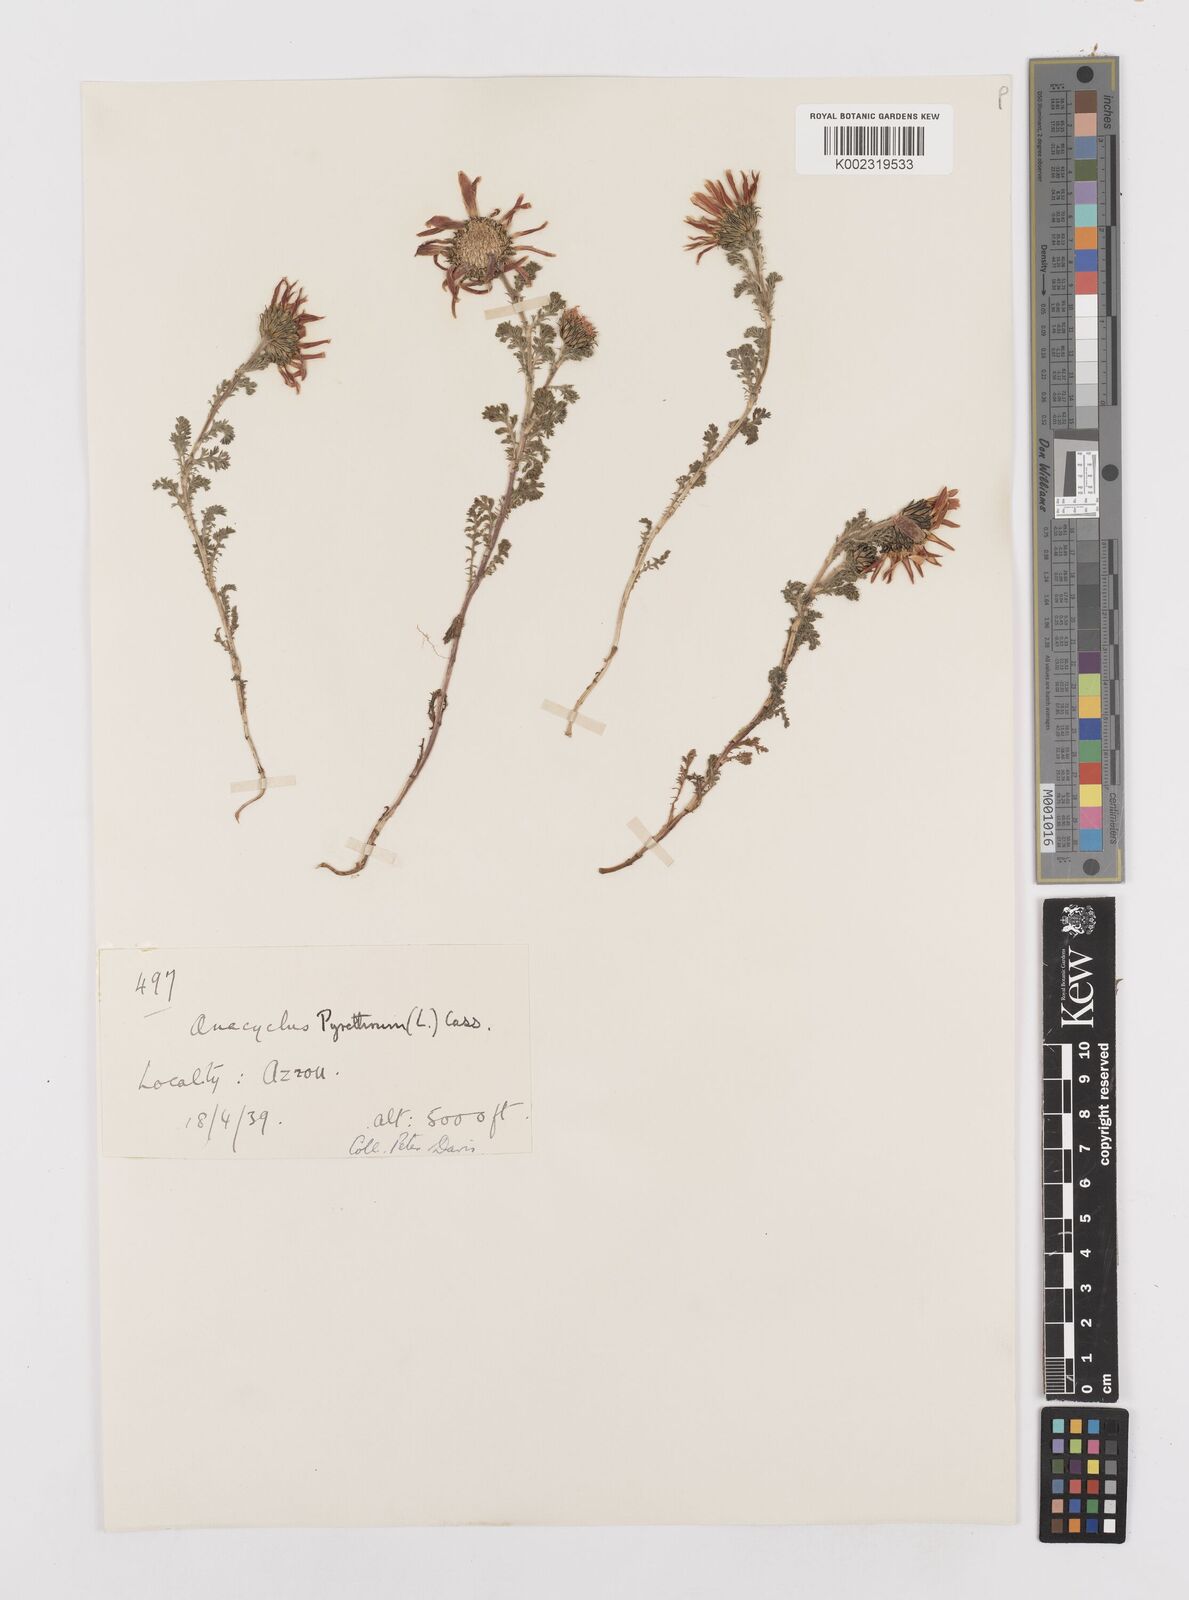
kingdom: Plantae
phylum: Tracheophyta
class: Magnoliopsida
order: Asterales
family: Asteraceae
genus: Anacyclus
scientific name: Anacyclus pyrethrum
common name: Mt. atlas daisy
